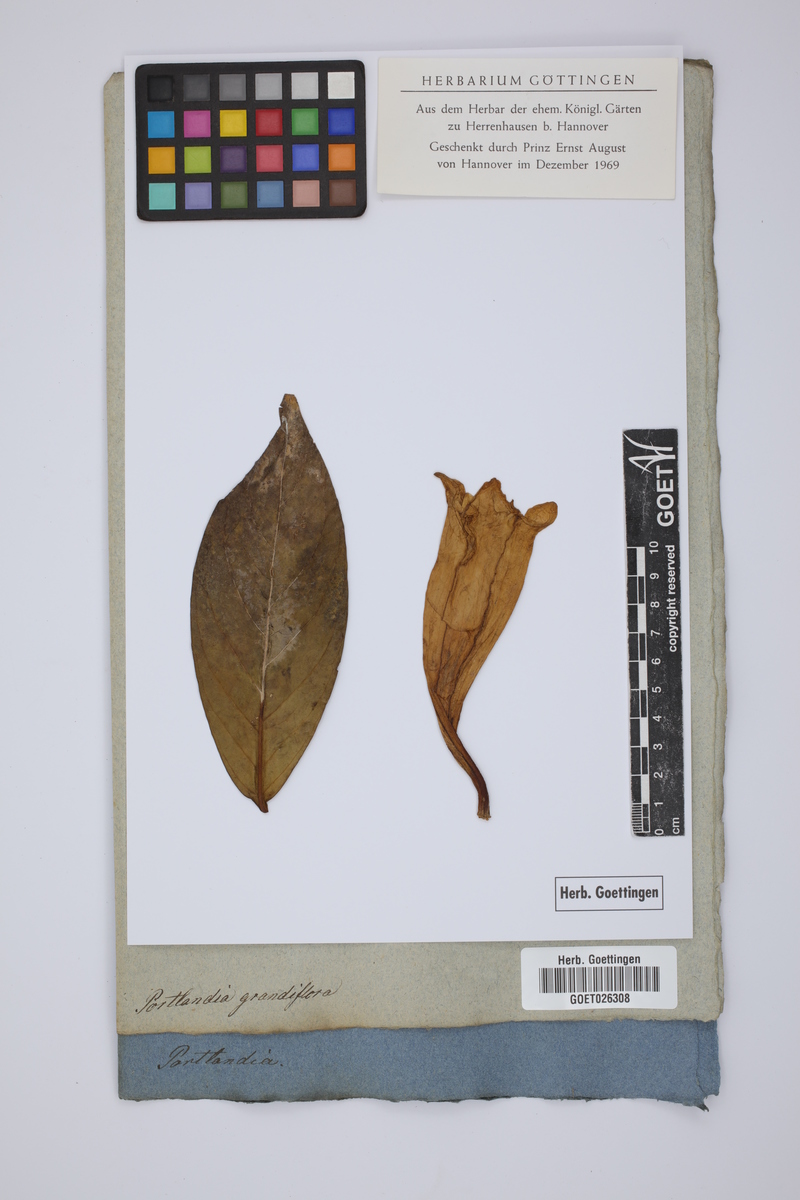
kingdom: Plantae
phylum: Tracheophyta
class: Magnoliopsida
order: Gentianales
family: Rubiaceae
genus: Portlandia
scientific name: Portlandia grandiflora
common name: Bellflower
